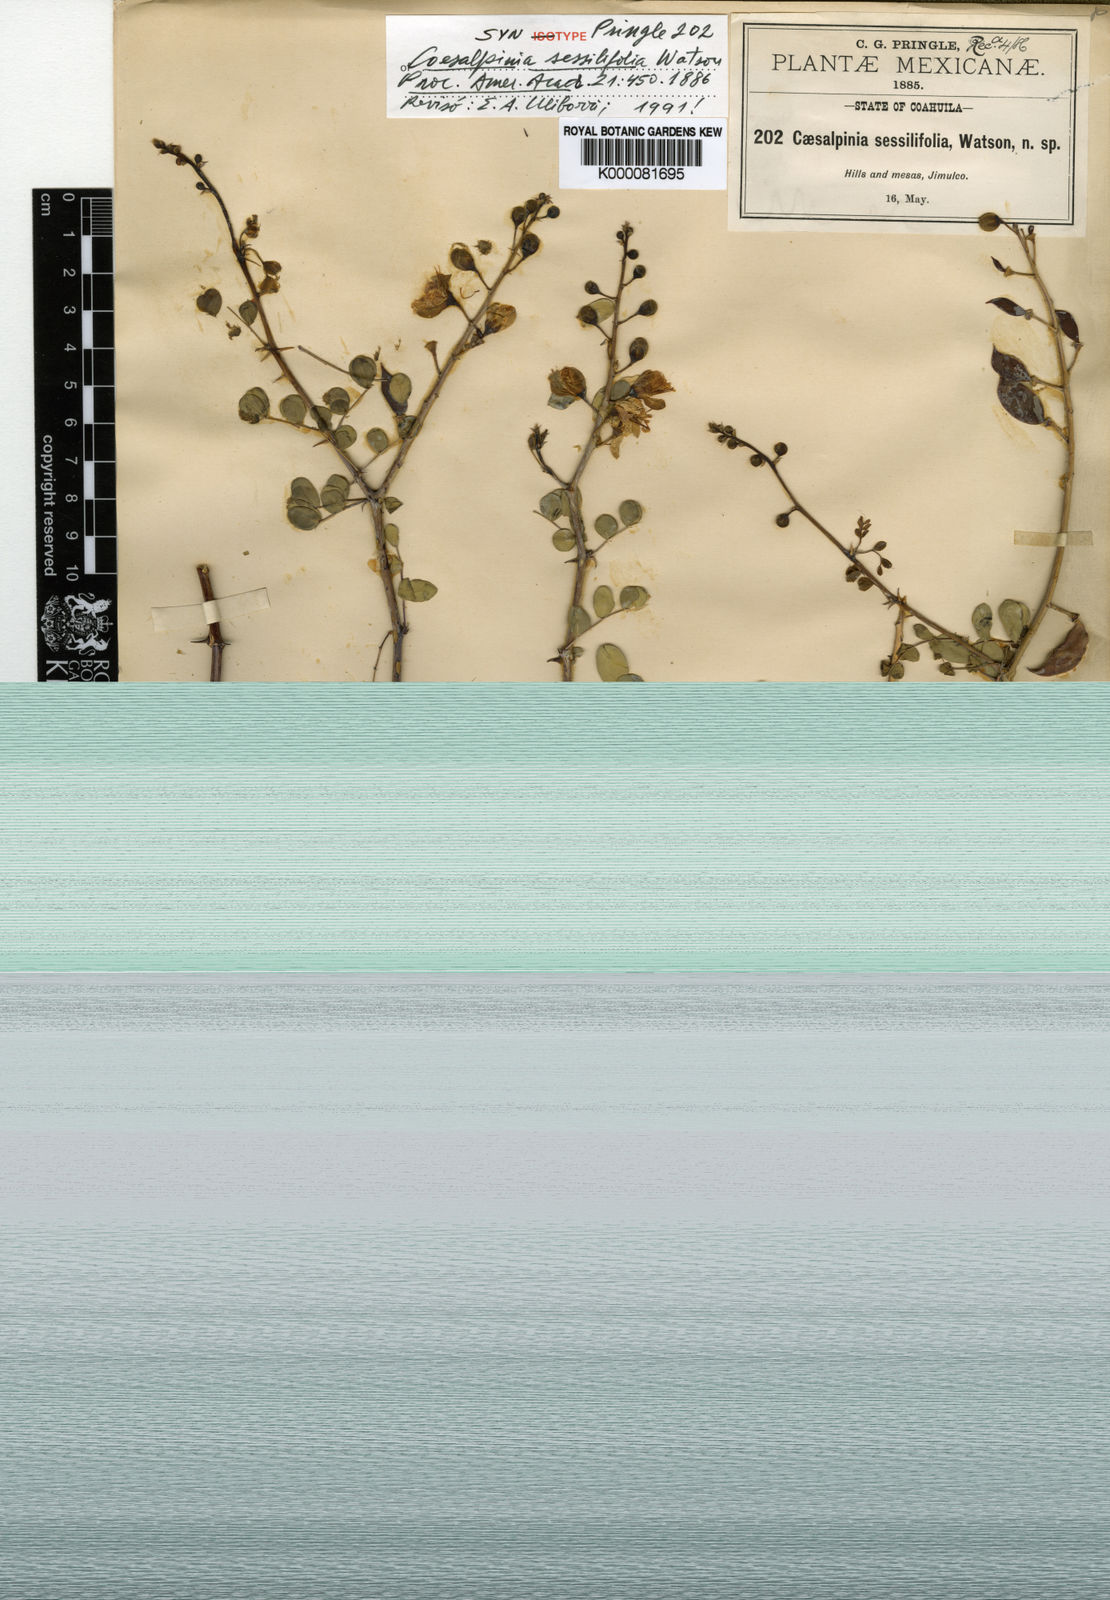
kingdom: Plantae
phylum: Tracheophyta
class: Magnoliopsida
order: Fabales
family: Fabaceae
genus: Caesalpinia
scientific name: Caesalpinia
